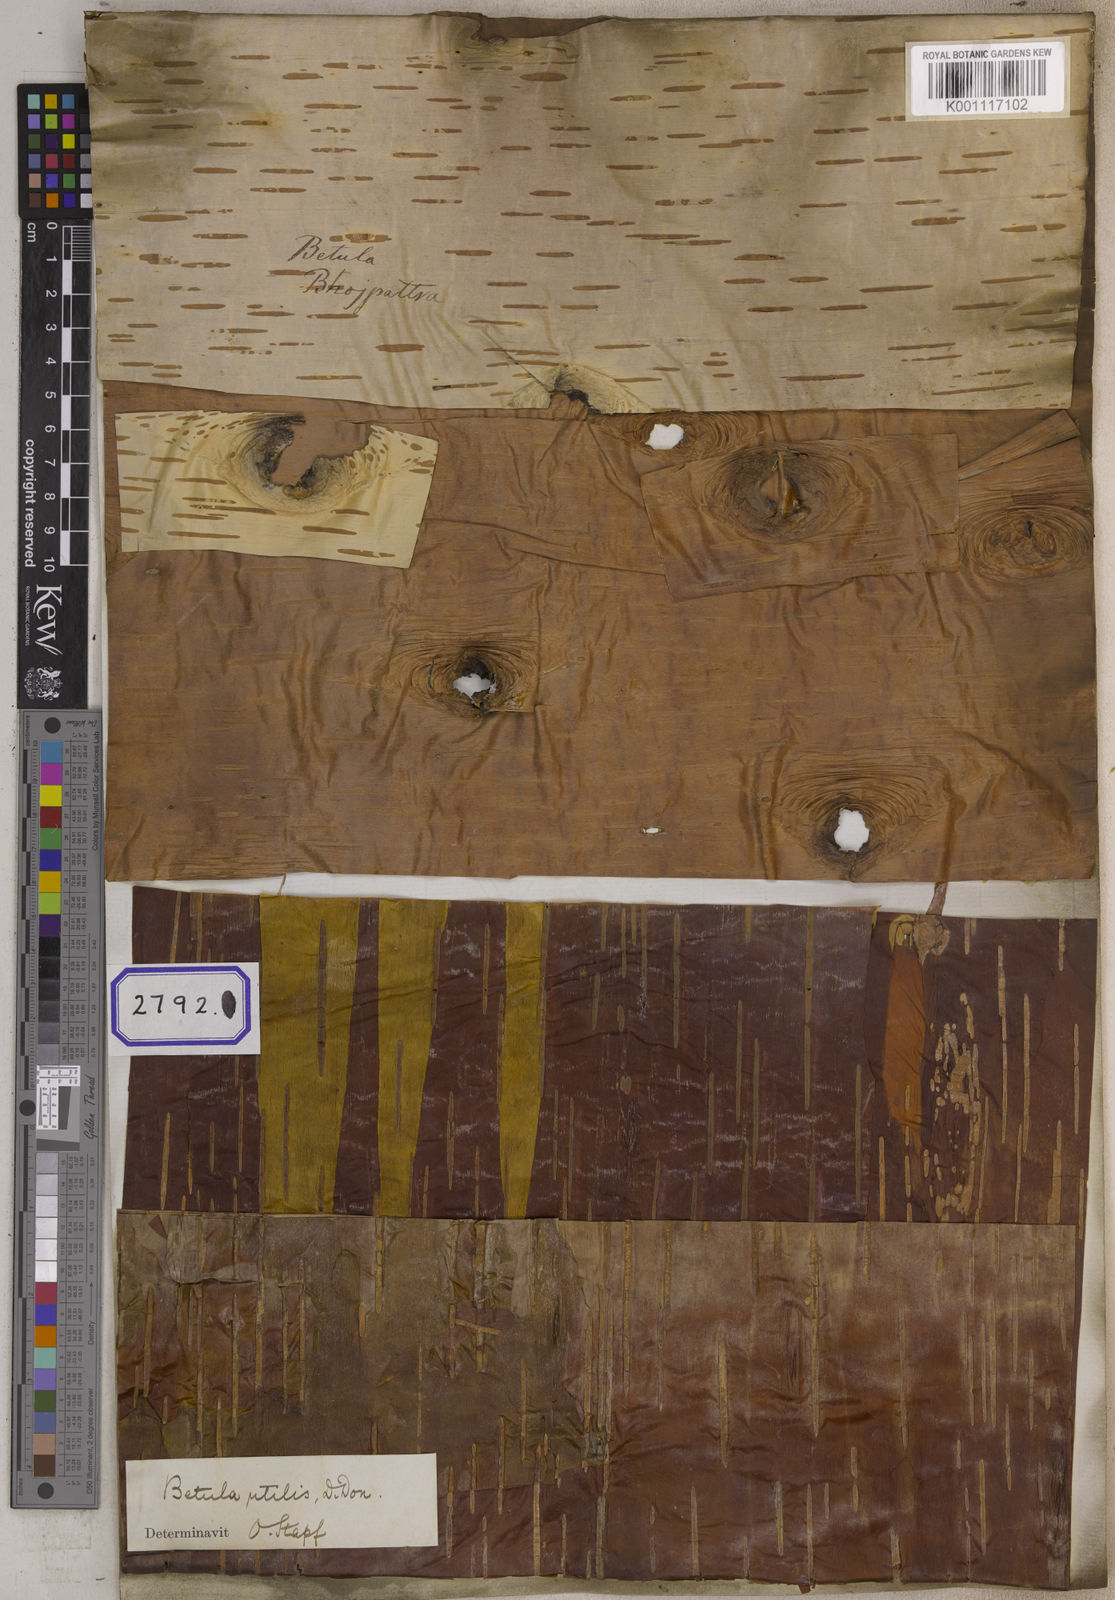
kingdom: Plantae
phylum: Tracheophyta
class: Magnoliopsida
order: Fagales
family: Betulaceae
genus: Betula
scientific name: Betula utilis
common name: Himalayan birch
